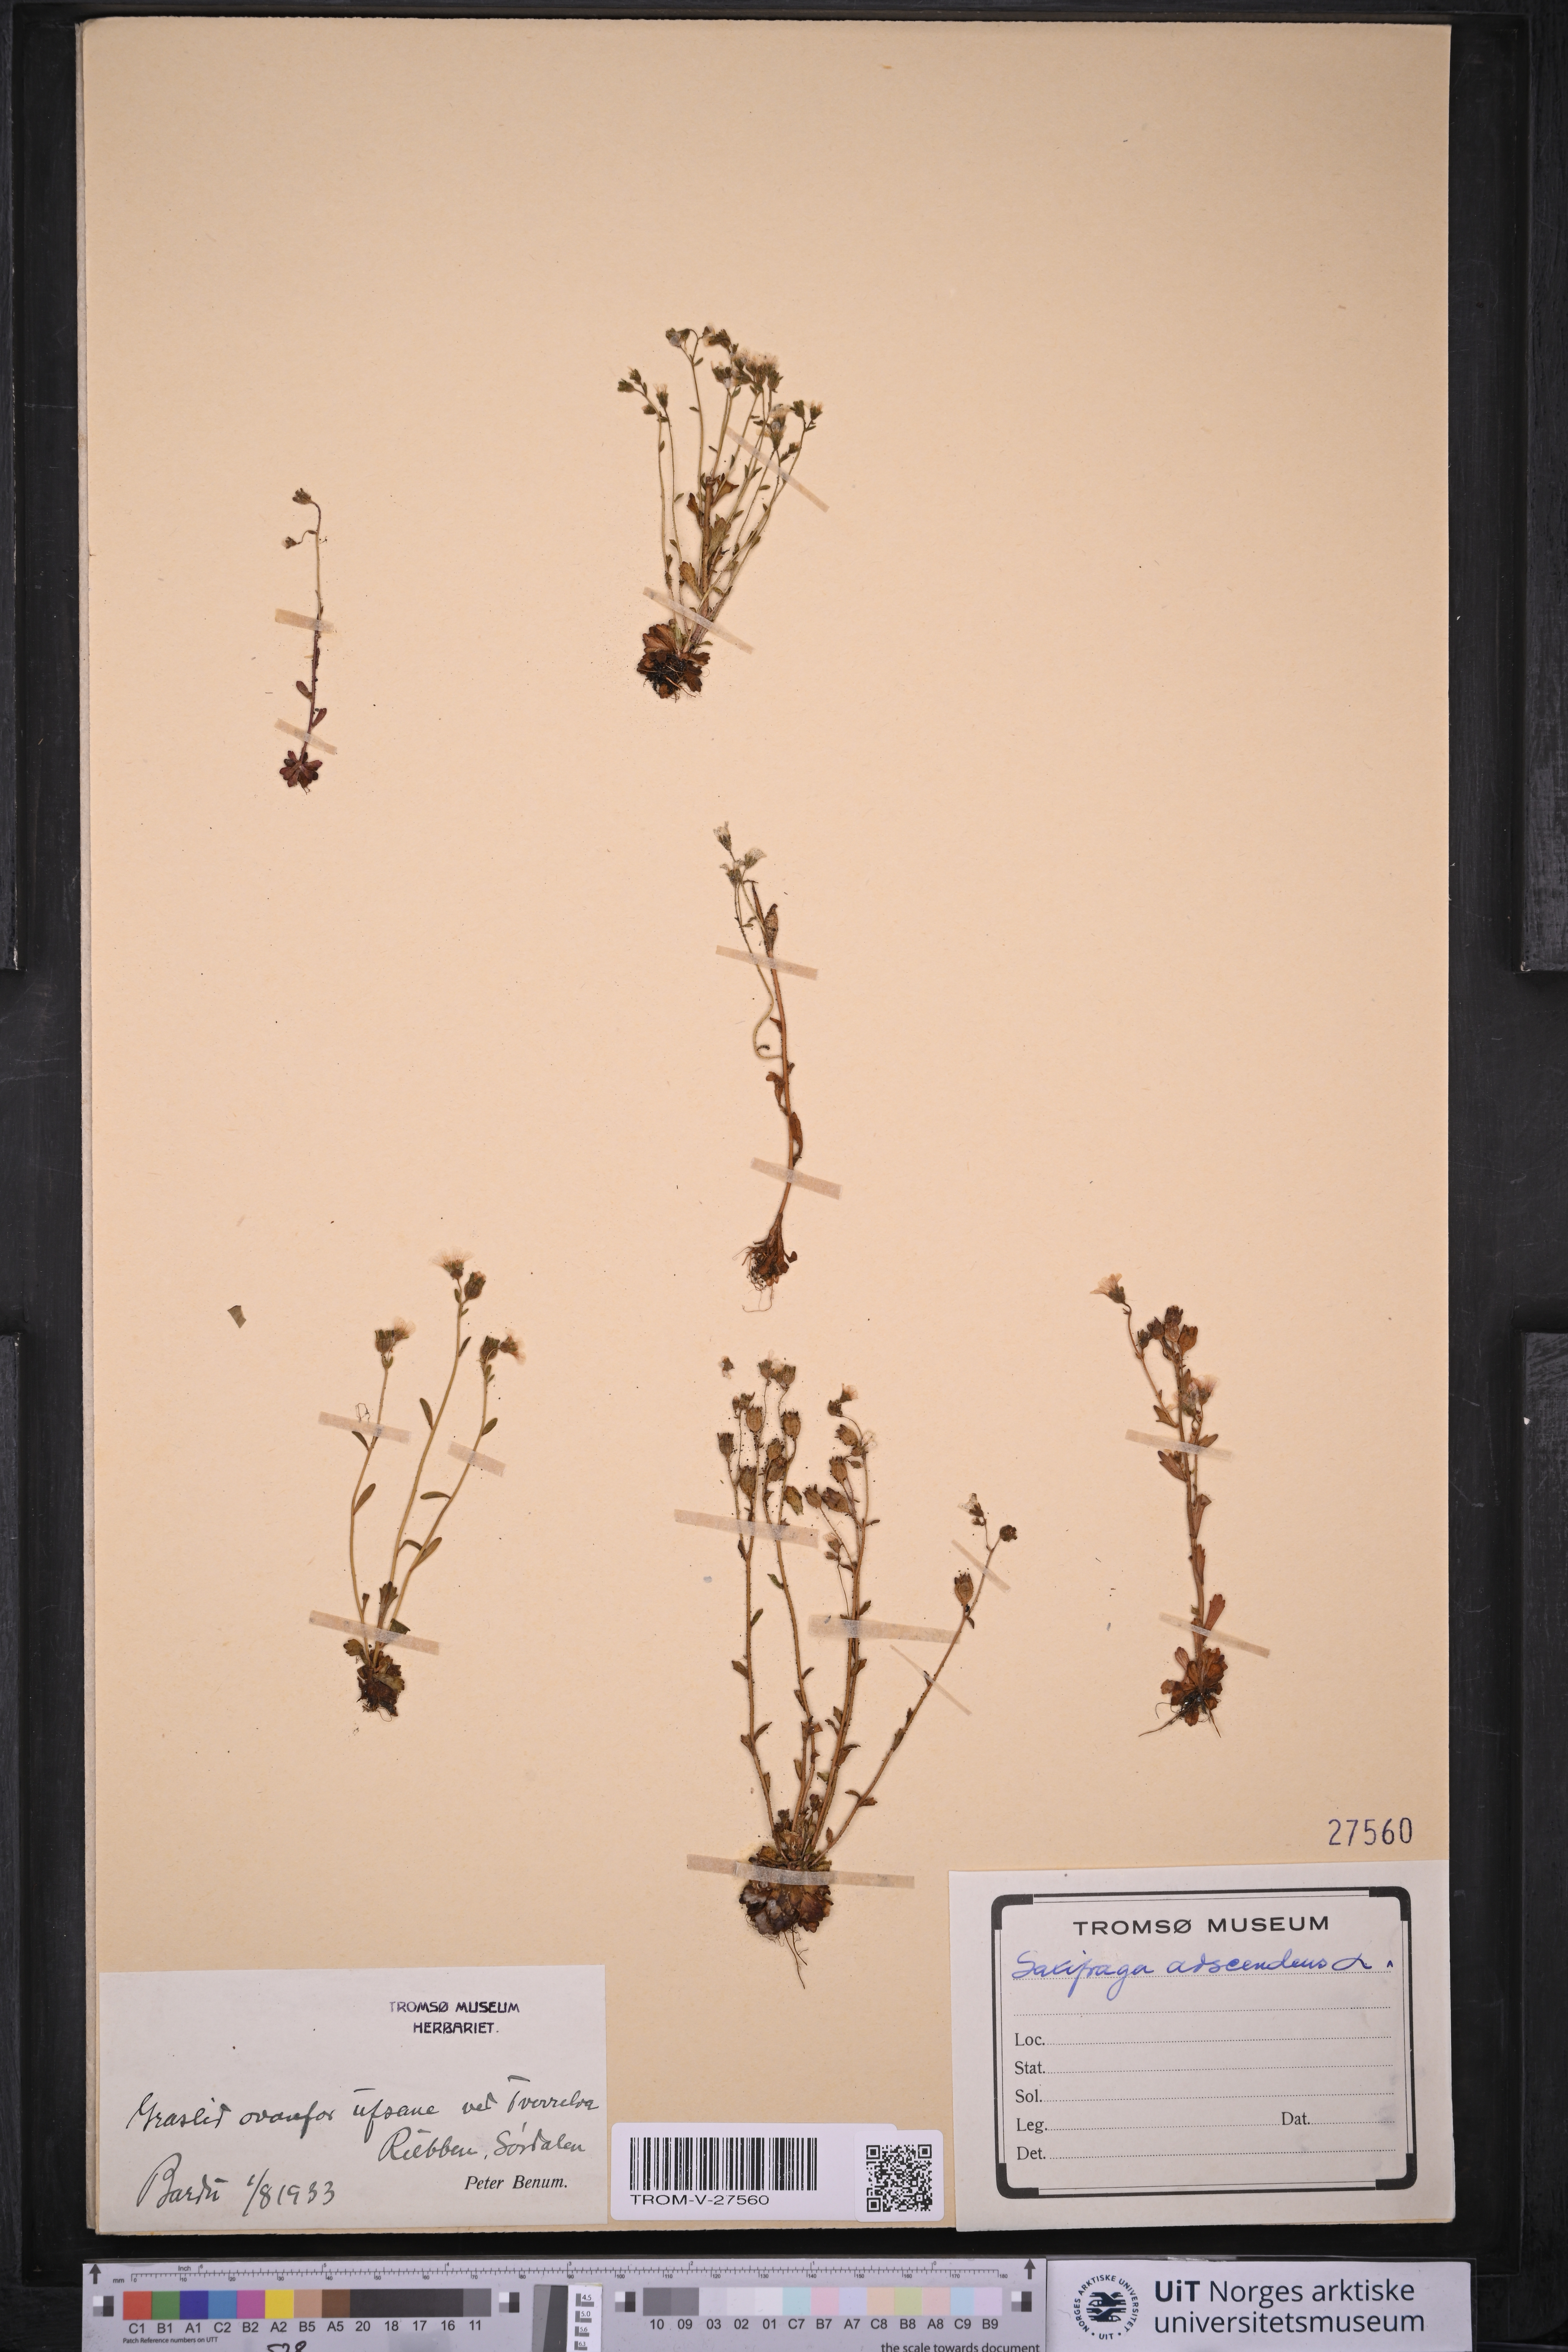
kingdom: Plantae
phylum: Tracheophyta
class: Magnoliopsida
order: Saxifragales
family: Saxifragaceae
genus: Saxifraga
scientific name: Saxifraga adscendens
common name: Ascending saxifrage
